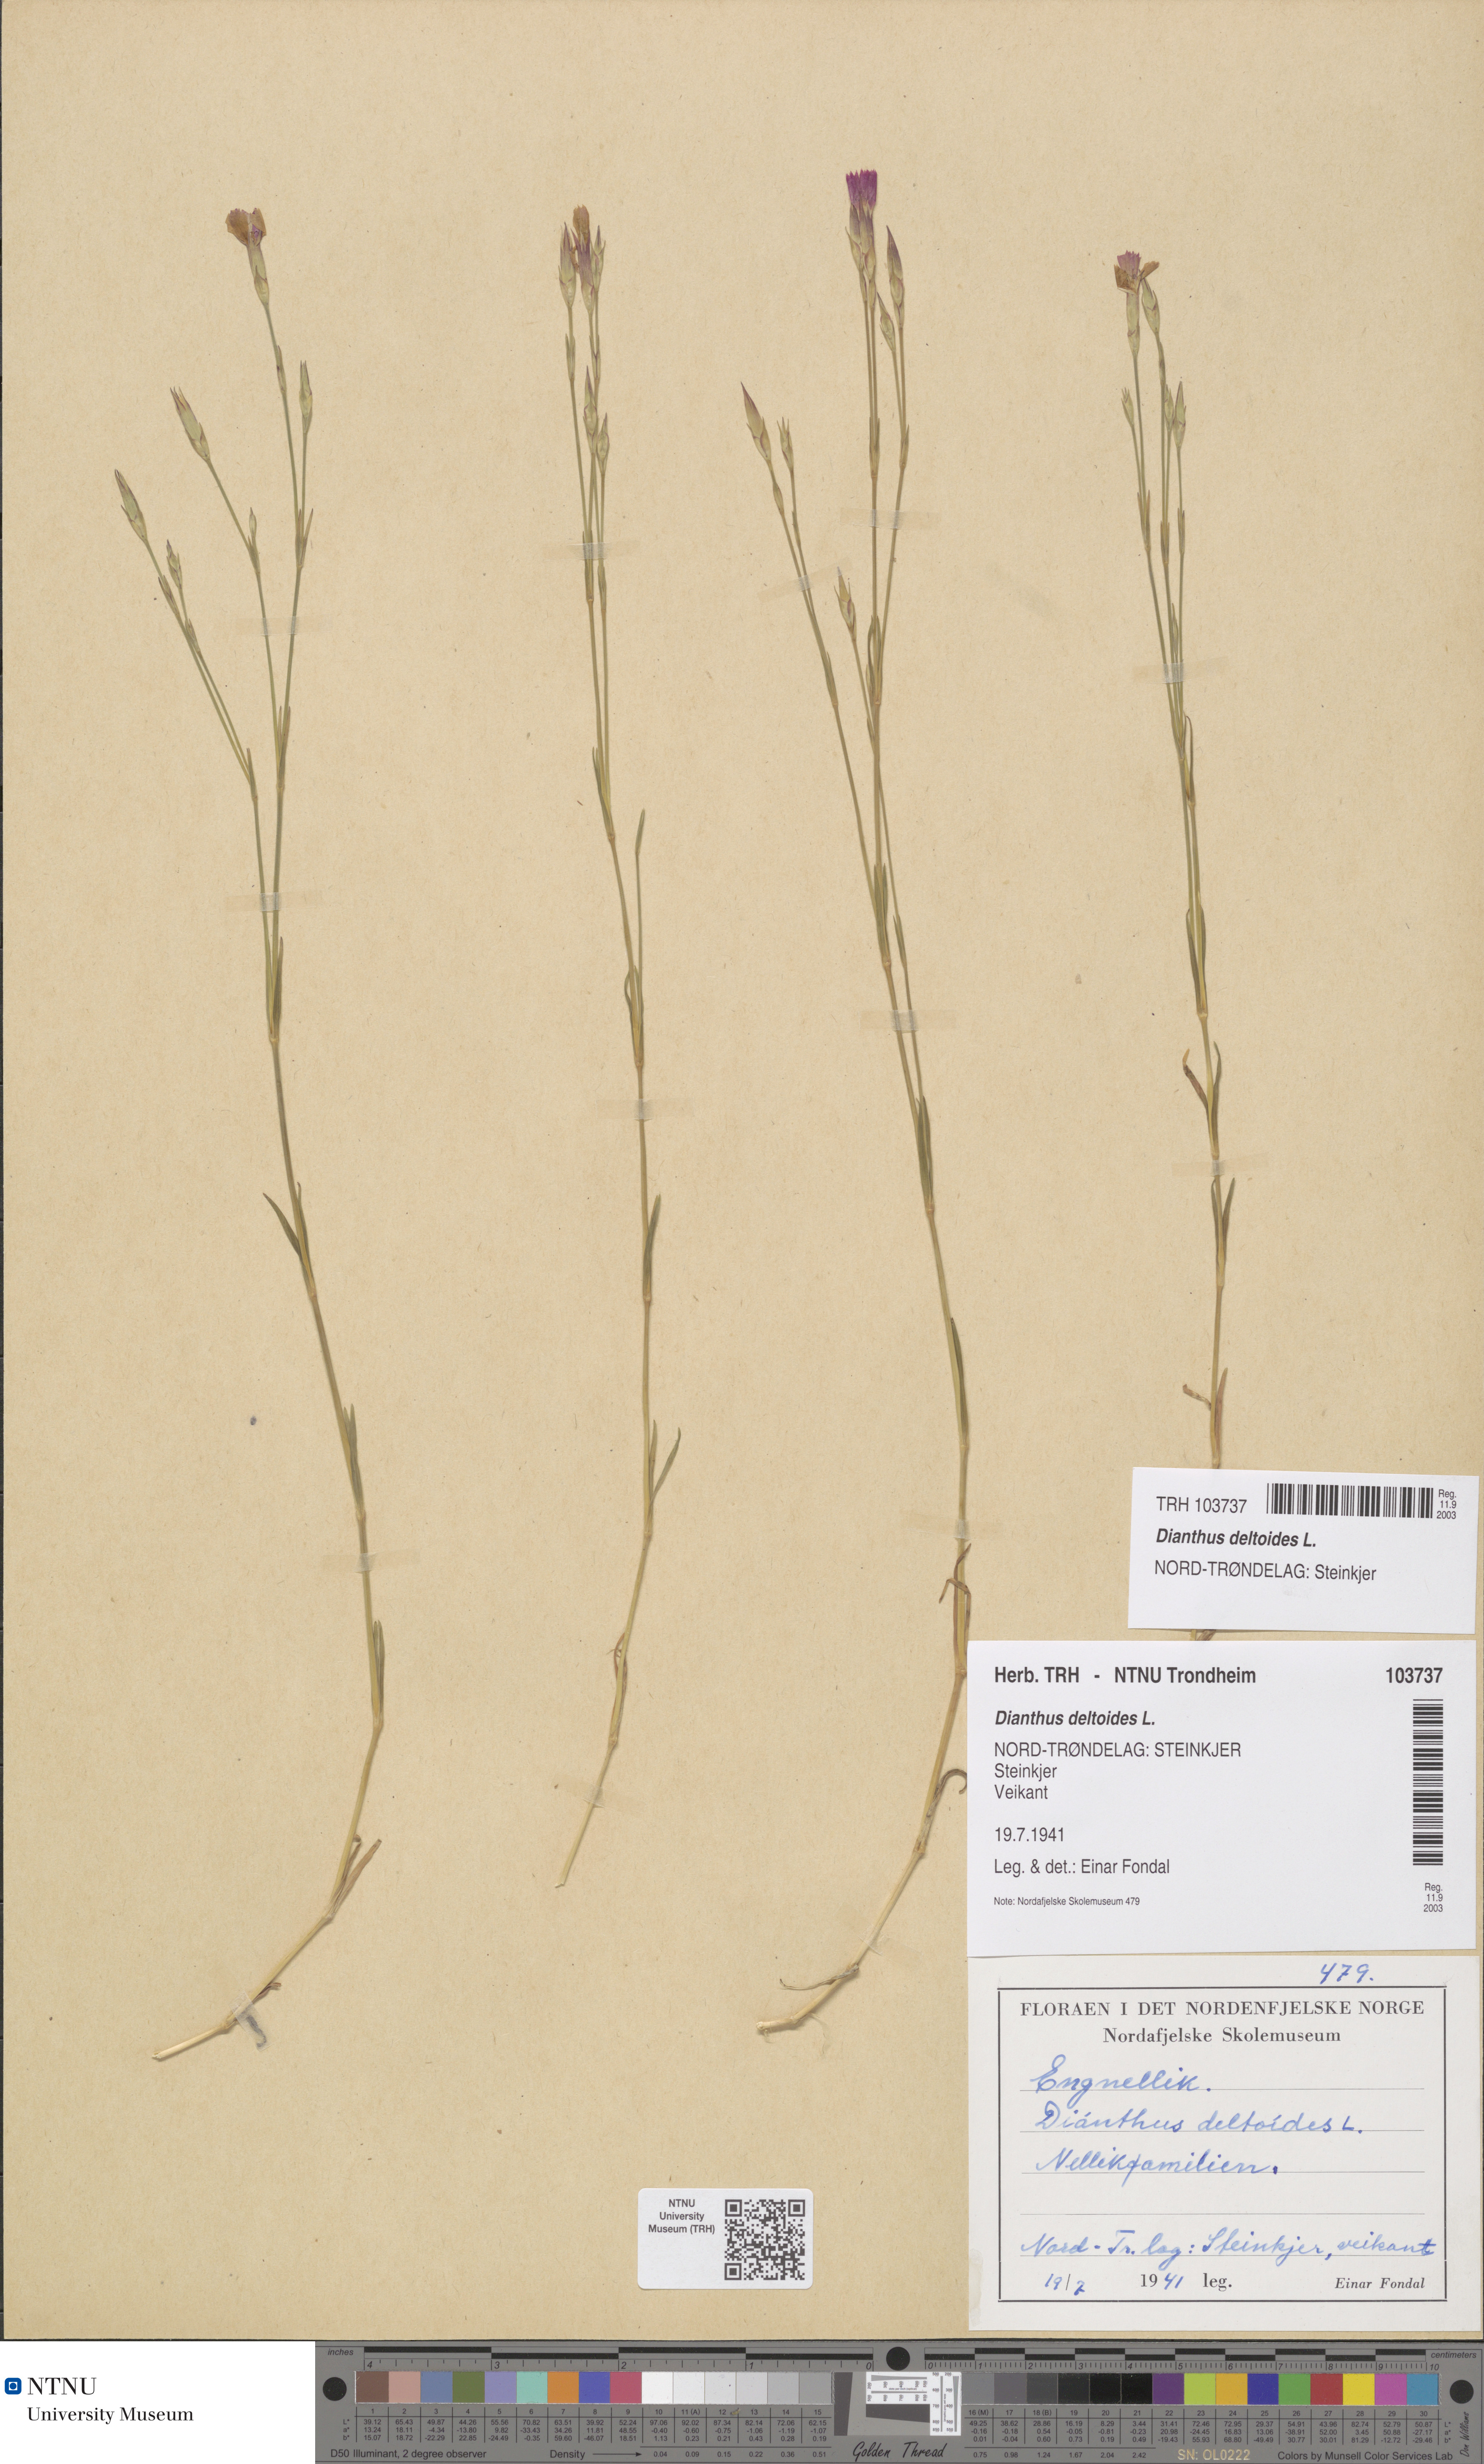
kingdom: Plantae
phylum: Tracheophyta
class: Magnoliopsida
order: Caryophyllales
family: Caryophyllaceae
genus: Dianthus
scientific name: Dianthus deltoides
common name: Maiden pink
